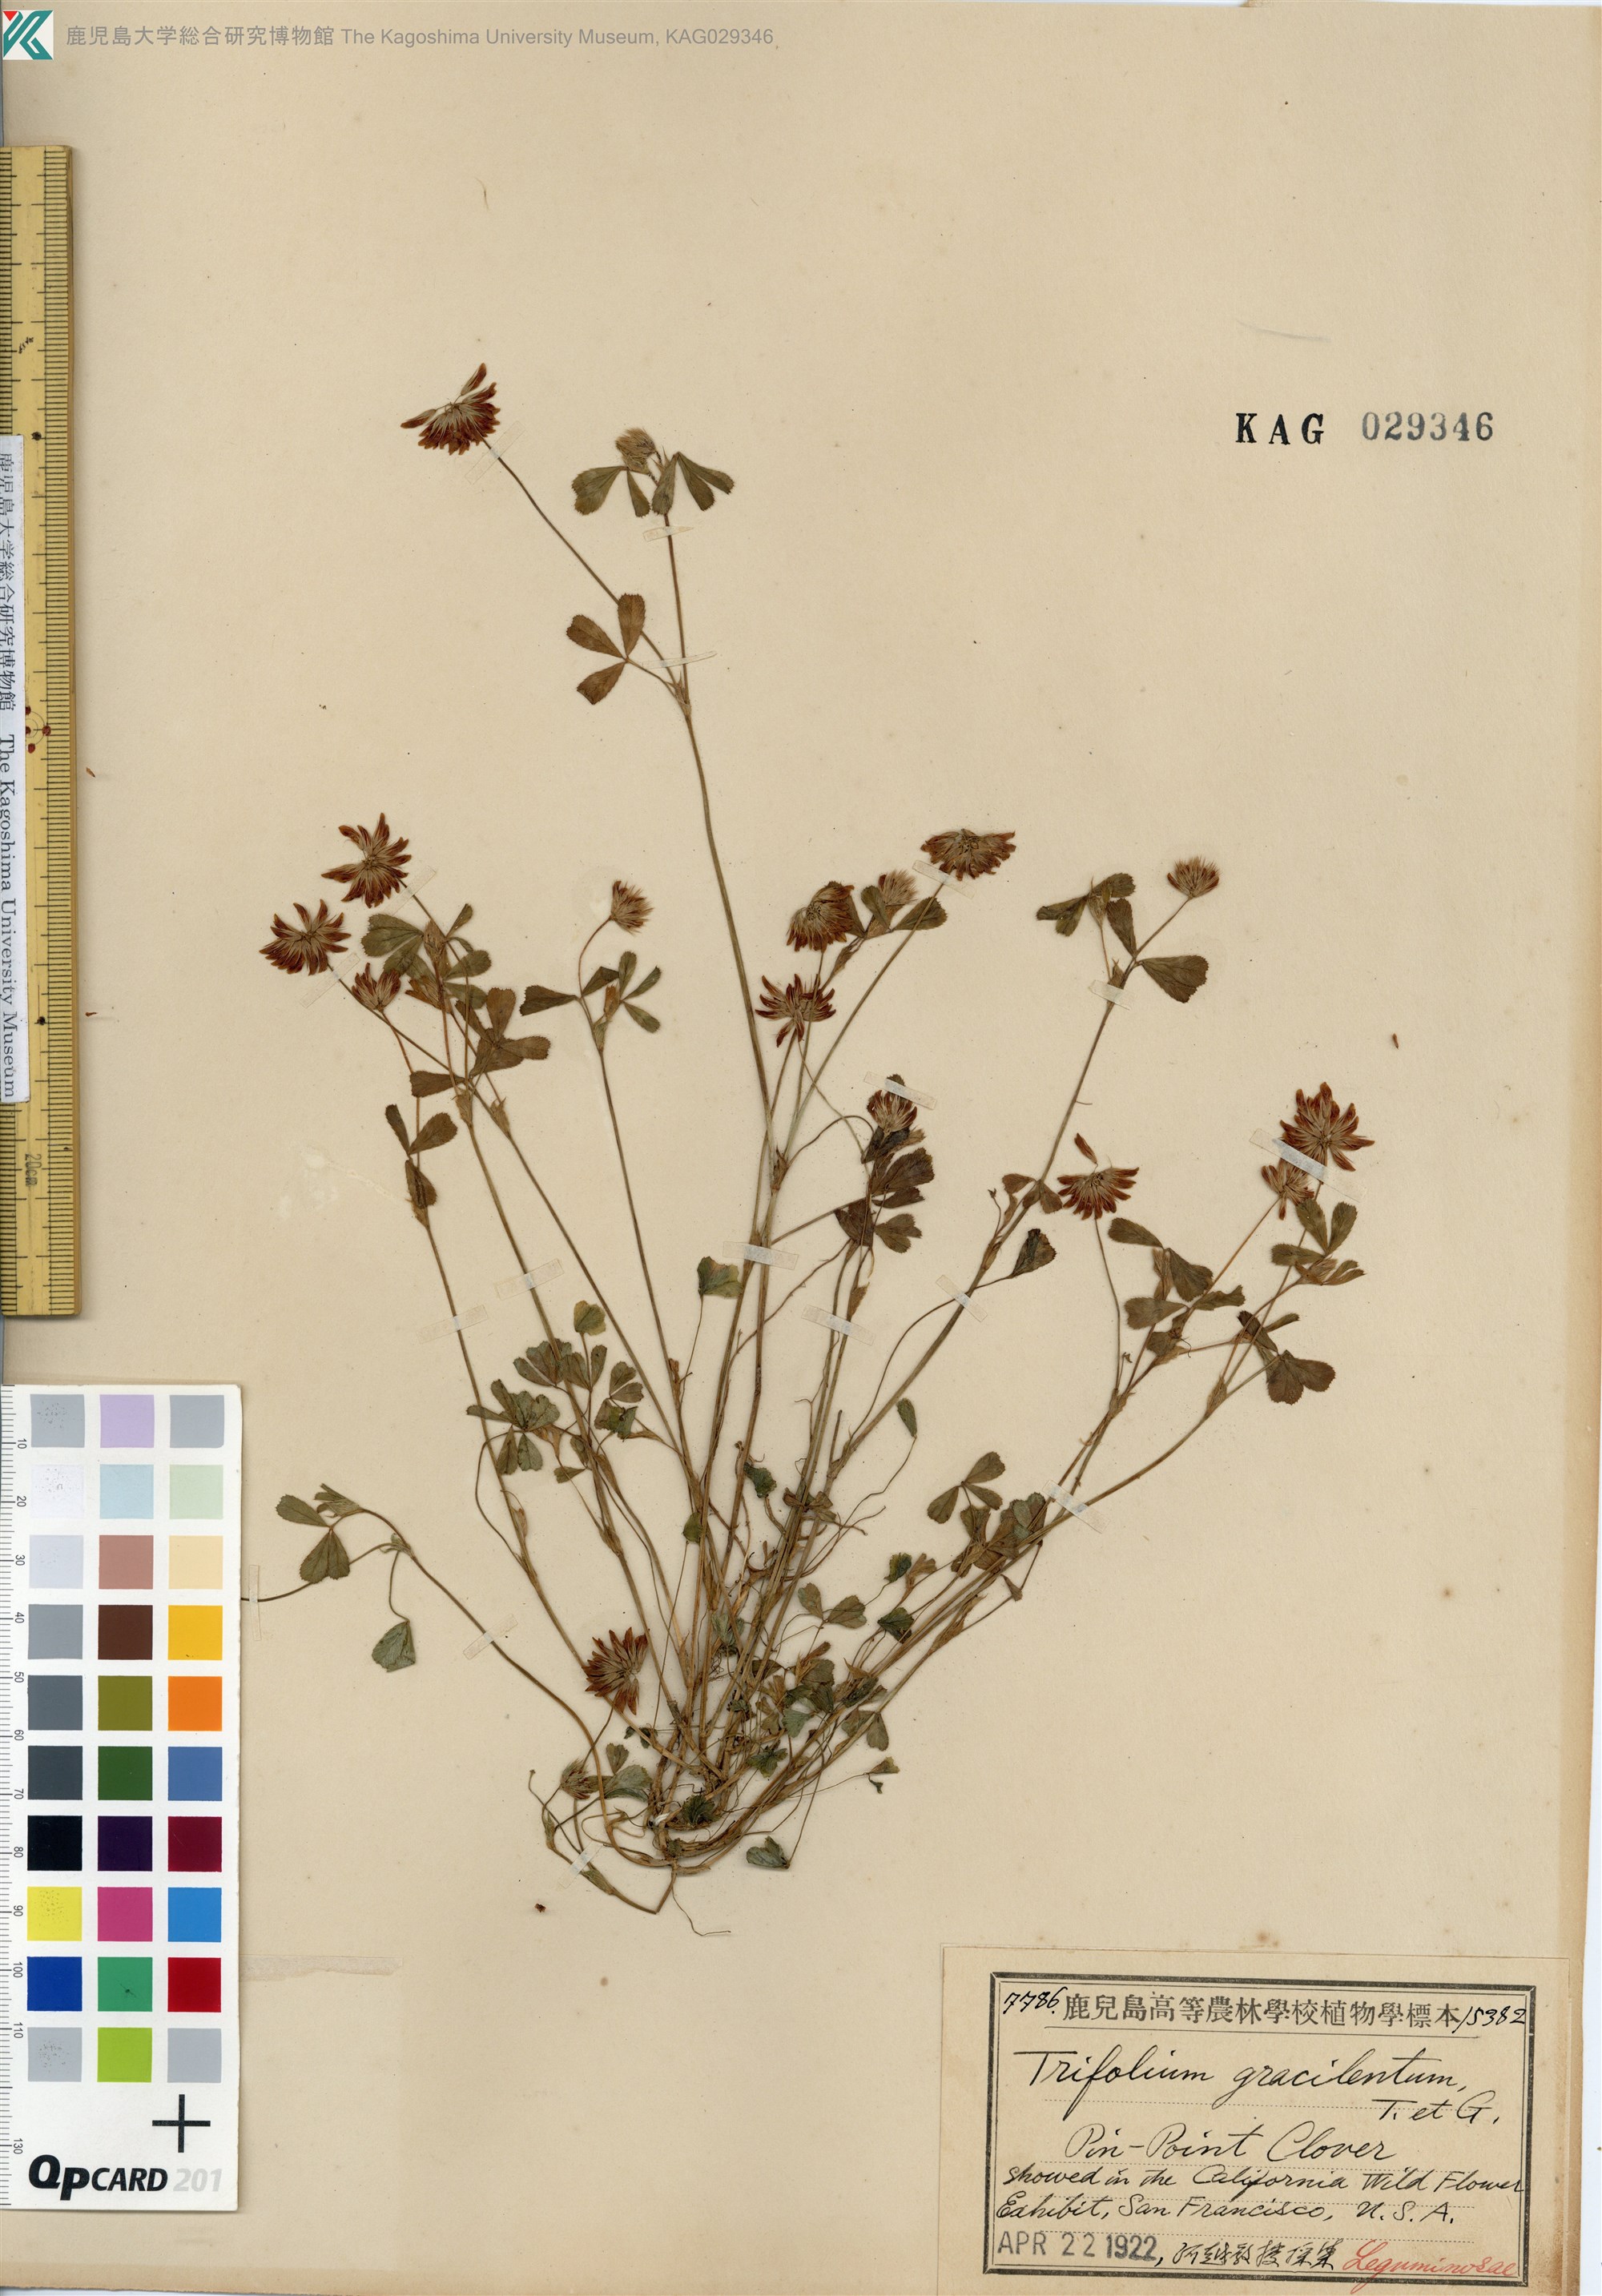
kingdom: Plantae
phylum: Tracheophyta
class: Magnoliopsida
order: Fabales
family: Fabaceae
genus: Trifolium
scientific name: Trifolium gracilentum
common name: Slender clover
